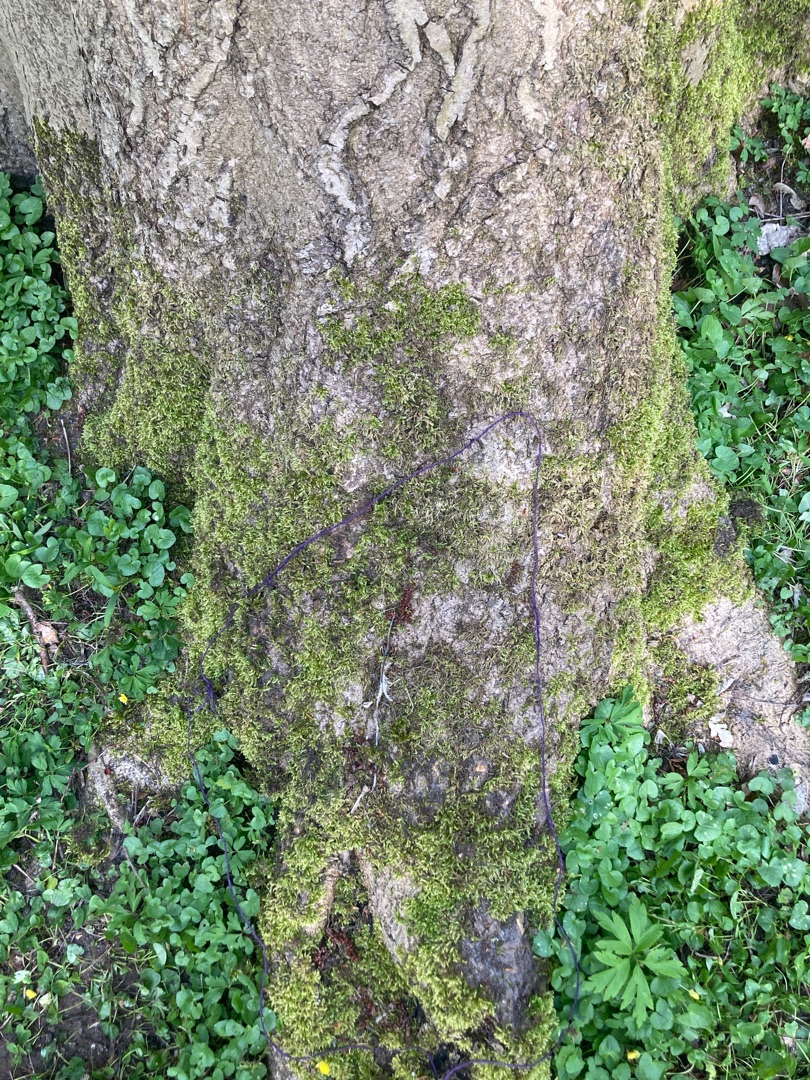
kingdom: Plantae
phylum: Bryophyta
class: Bryopsida
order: Hypnales
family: Brachytheciaceae
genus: Brachythecium
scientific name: Brachythecium rutabulum
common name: Almindelig kortkapsel
